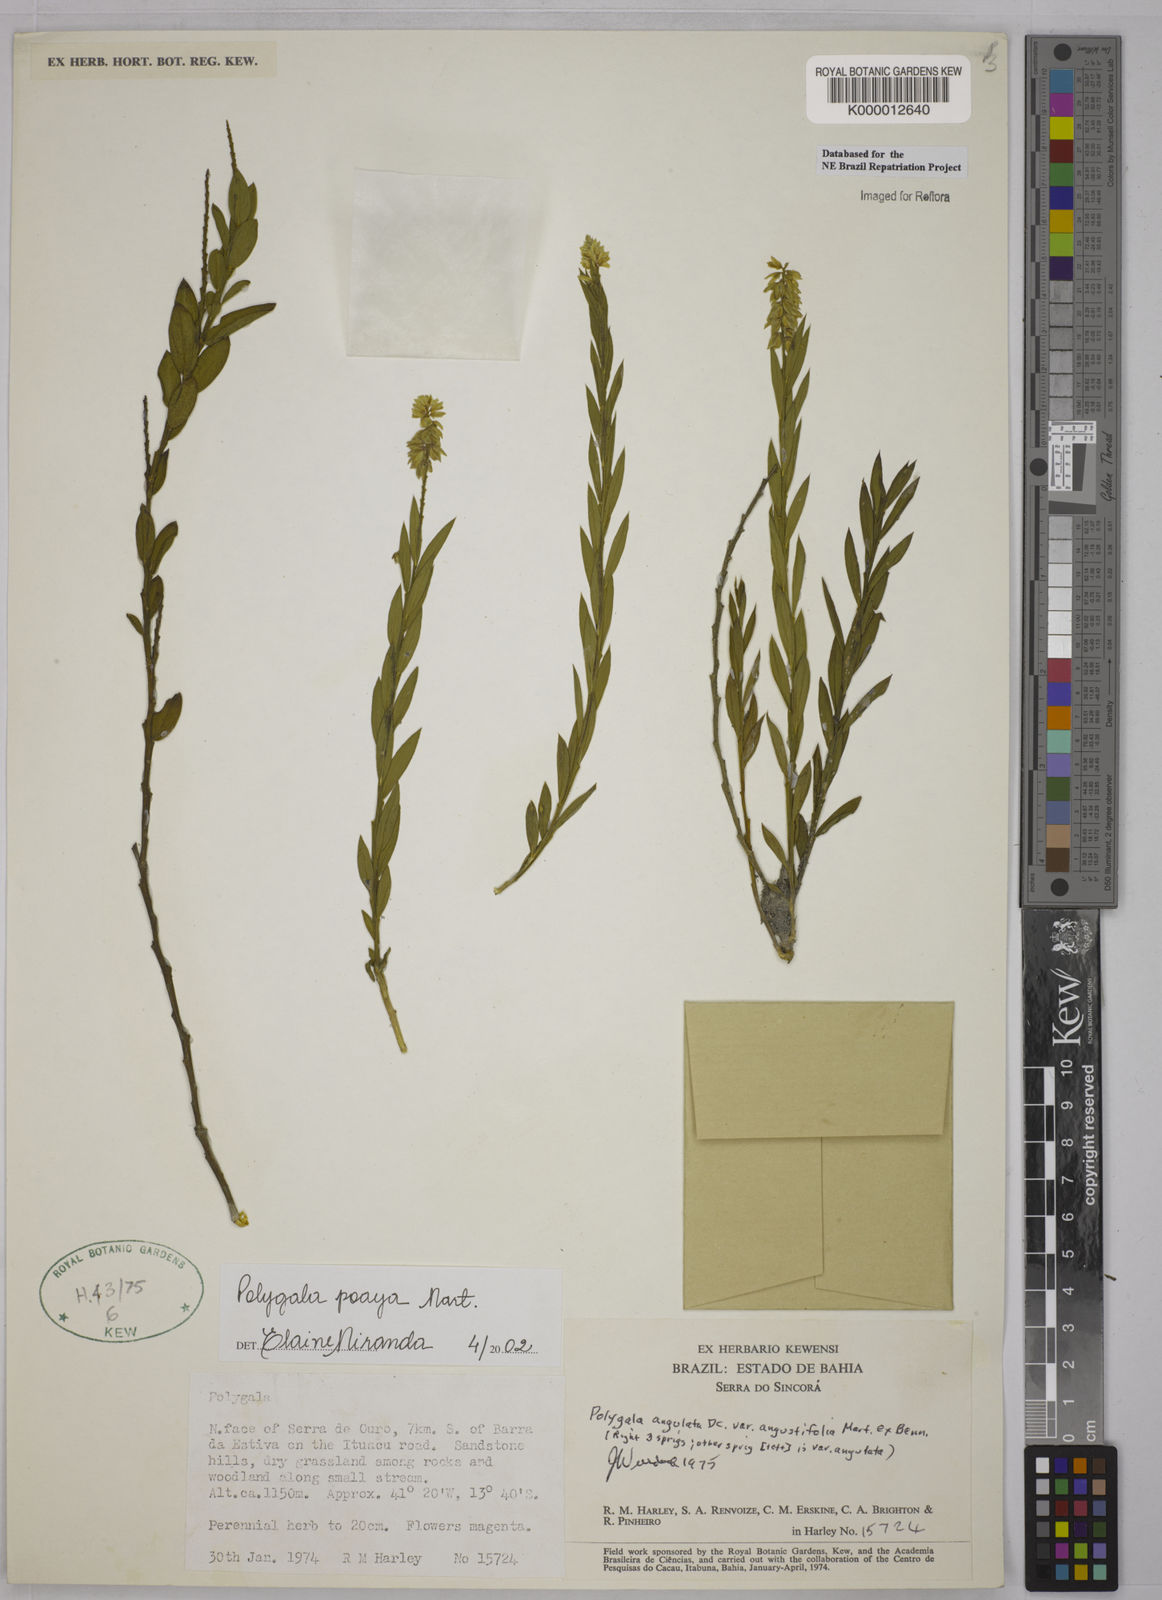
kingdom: Plantae
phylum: Tracheophyta
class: Magnoliopsida
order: Fabales
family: Polygalaceae
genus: Polygala
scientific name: Polygala poaya
